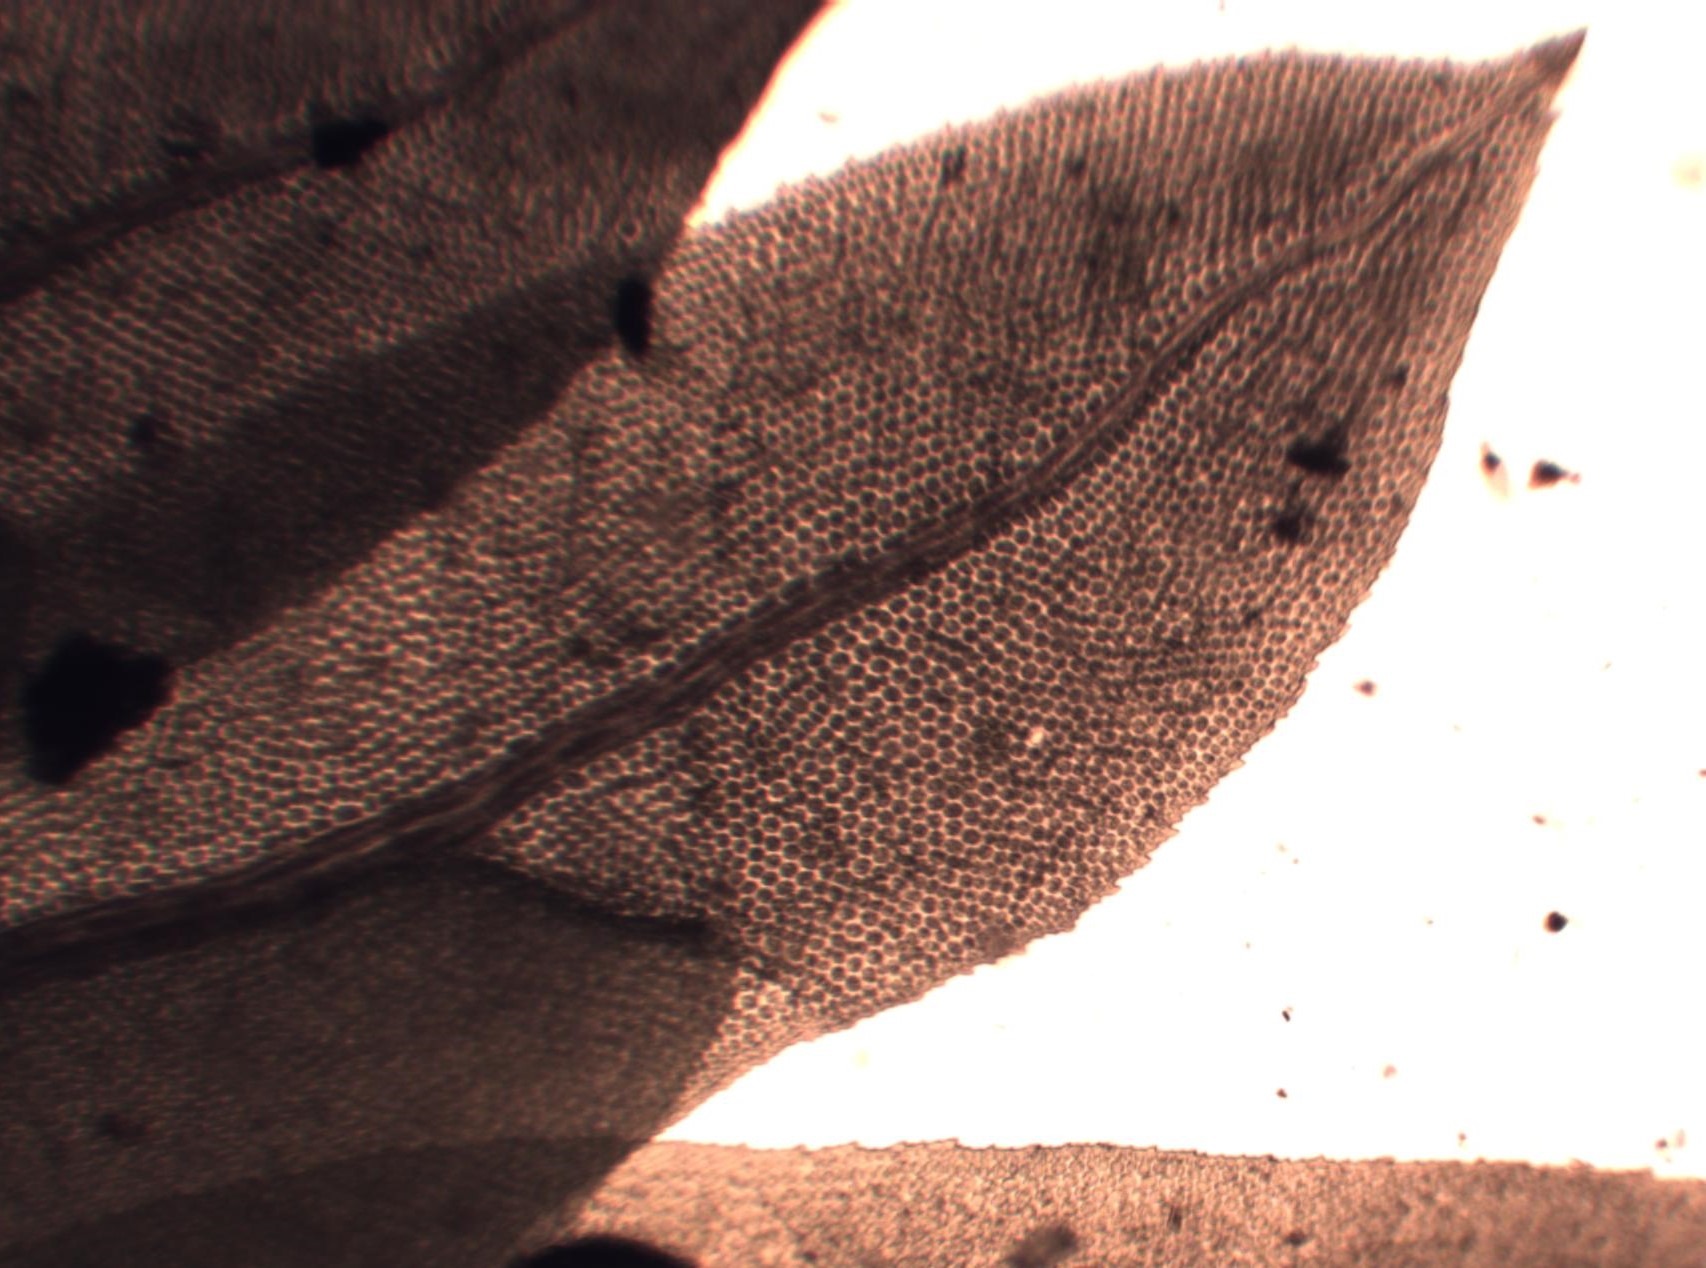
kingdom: Plantae
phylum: Bryophyta
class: Bryopsida
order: Dicranales
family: Fissidentaceae
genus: Fissidens
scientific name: Fissidens adianthoides
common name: Kær-rademos
